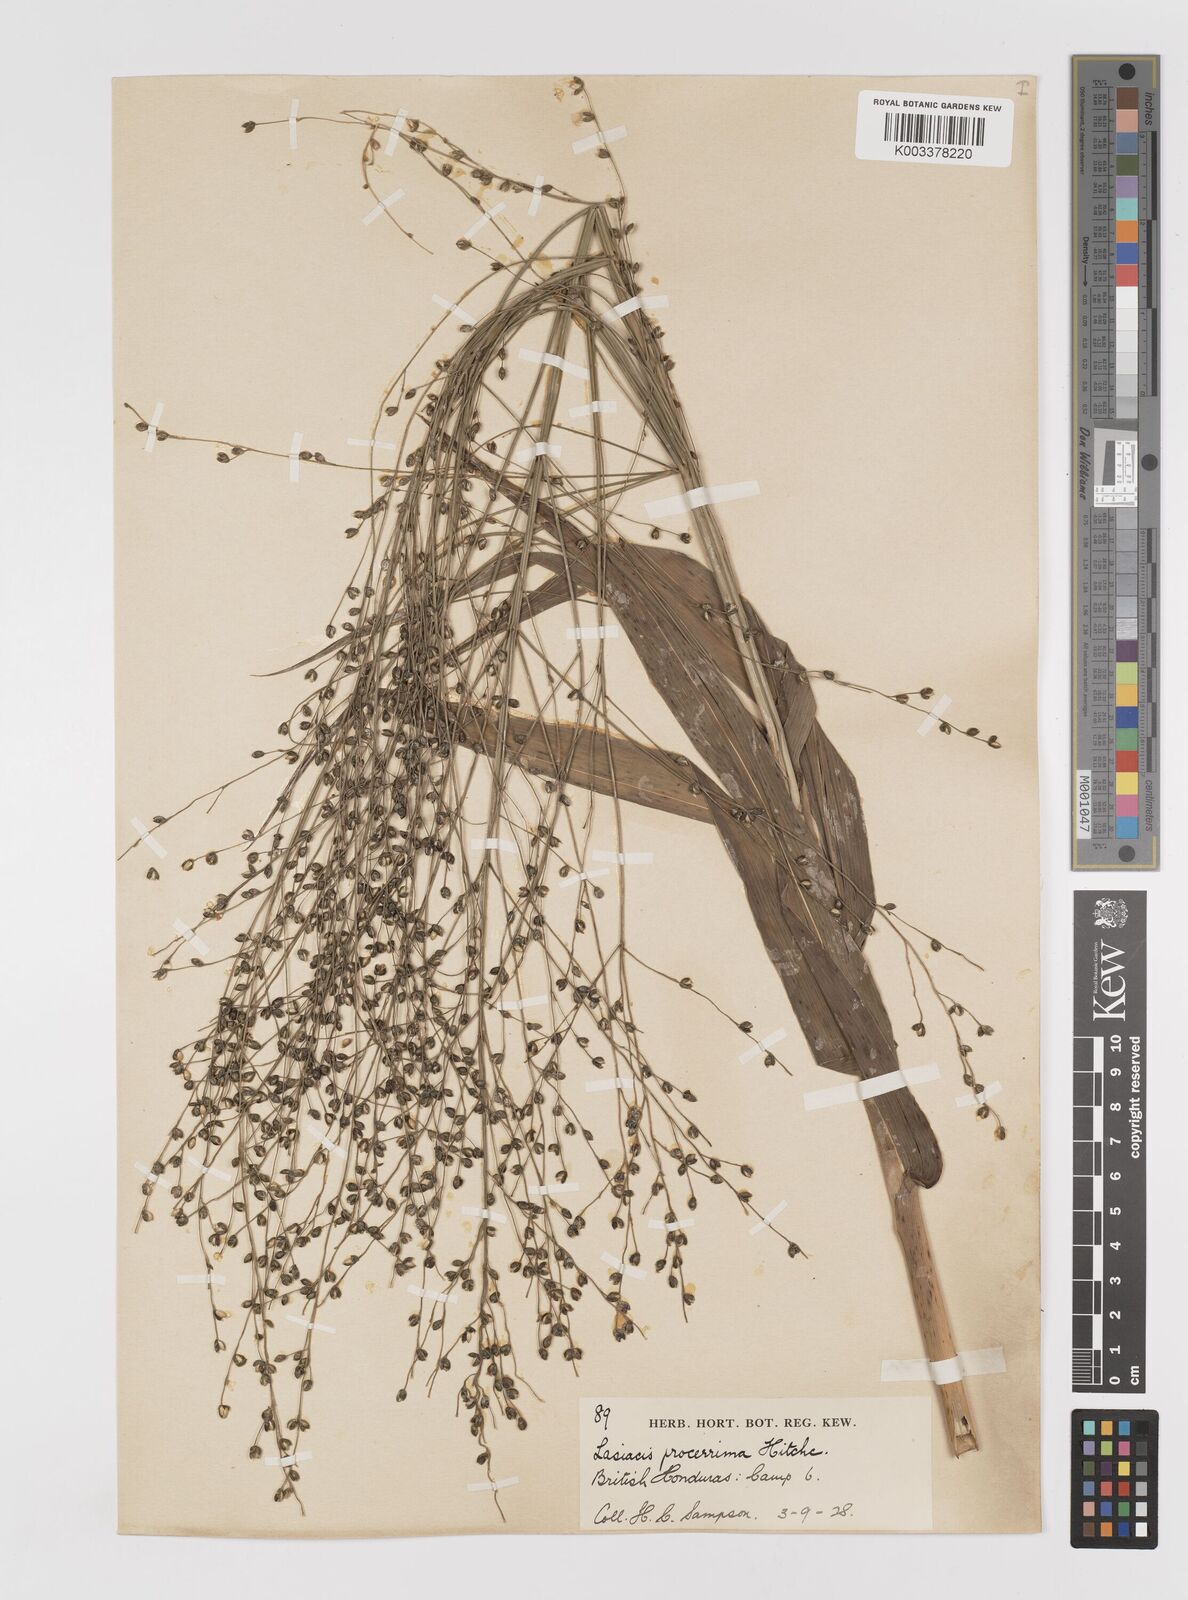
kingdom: Plantae
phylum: Tracheophyta
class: Liliopsida
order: Poales
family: Poaceae
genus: Lasiacis
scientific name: Lasiacis procerrima
